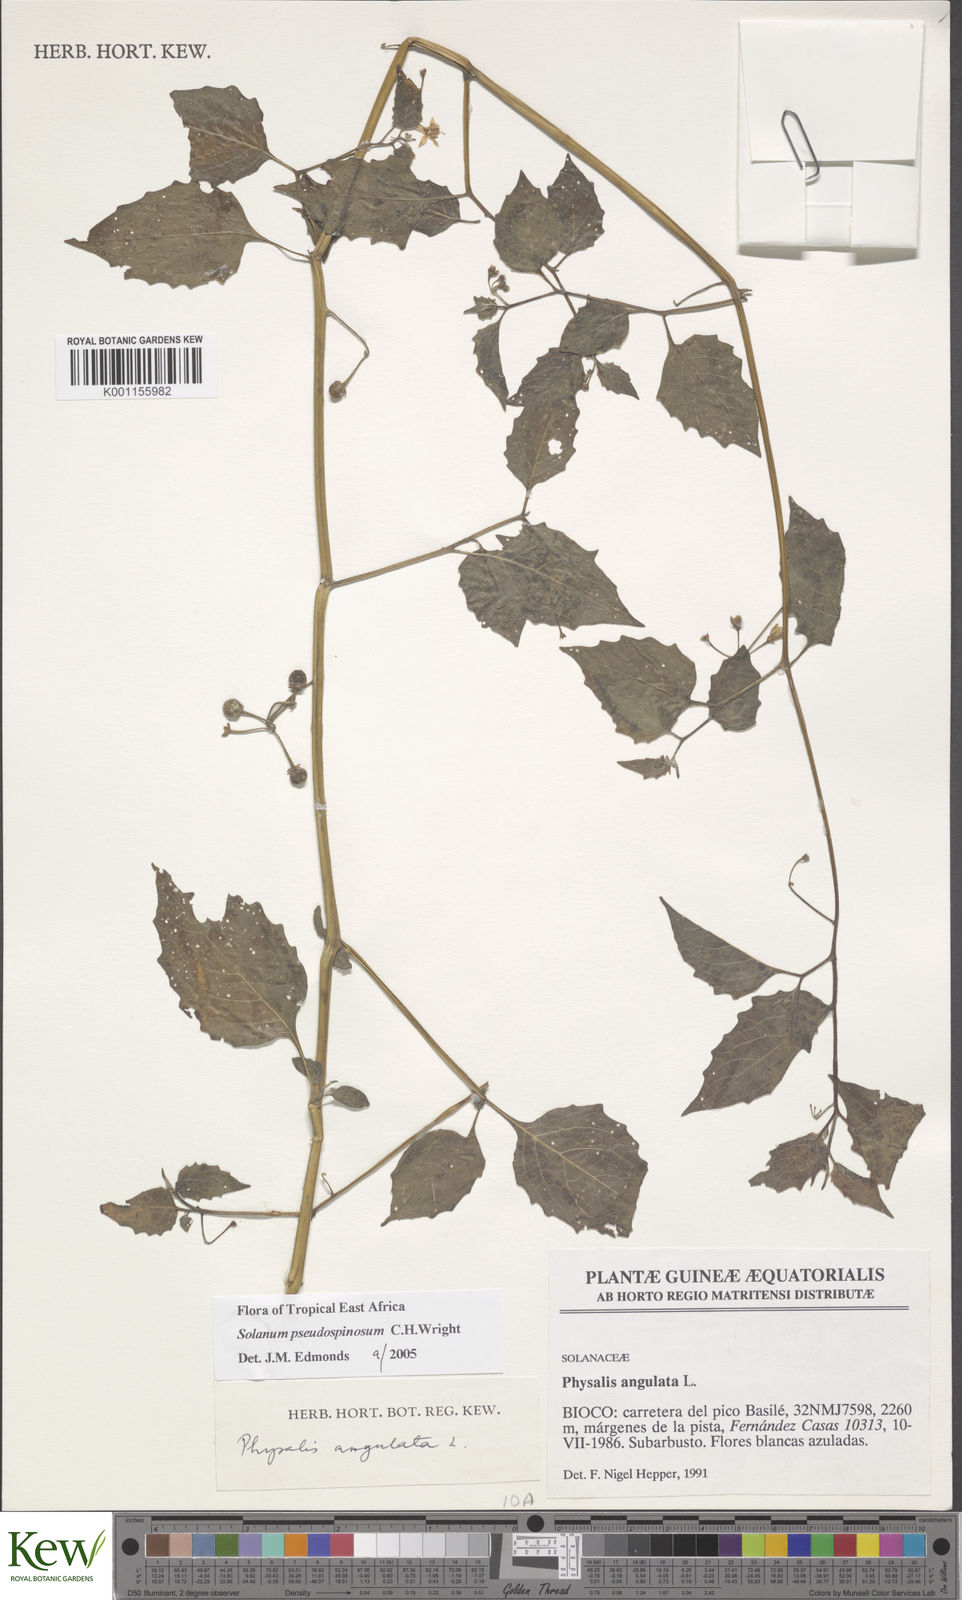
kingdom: Plantae
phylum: Tracheophyta
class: Magnoliopsida
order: Solanales
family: Solanaceae
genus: Solanum
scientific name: Solanum pseudospinosum
